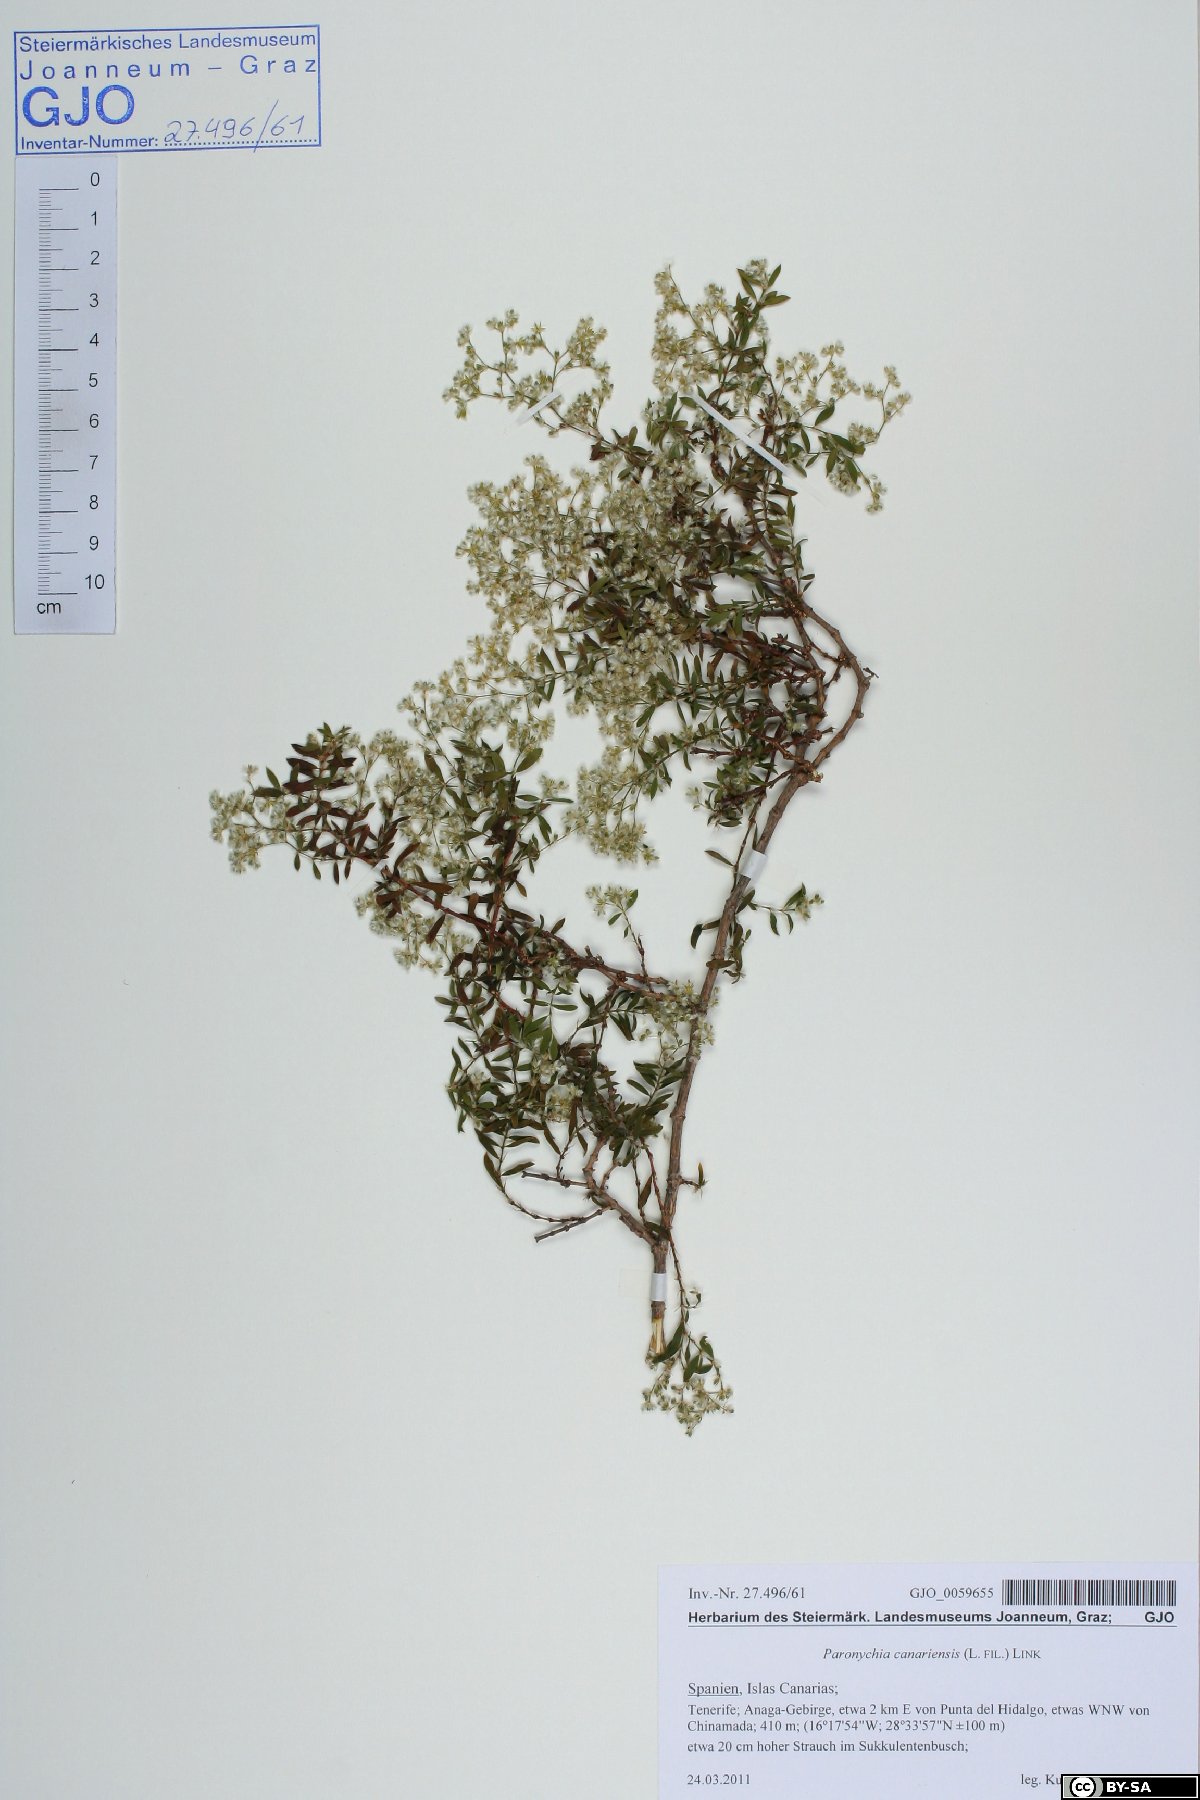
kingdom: Plantae
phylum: Tracheophyta
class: Magnoliopsida
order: Caryophyllales
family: Caryophyllaceae
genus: Paronychia
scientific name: Paronychia canariensis
